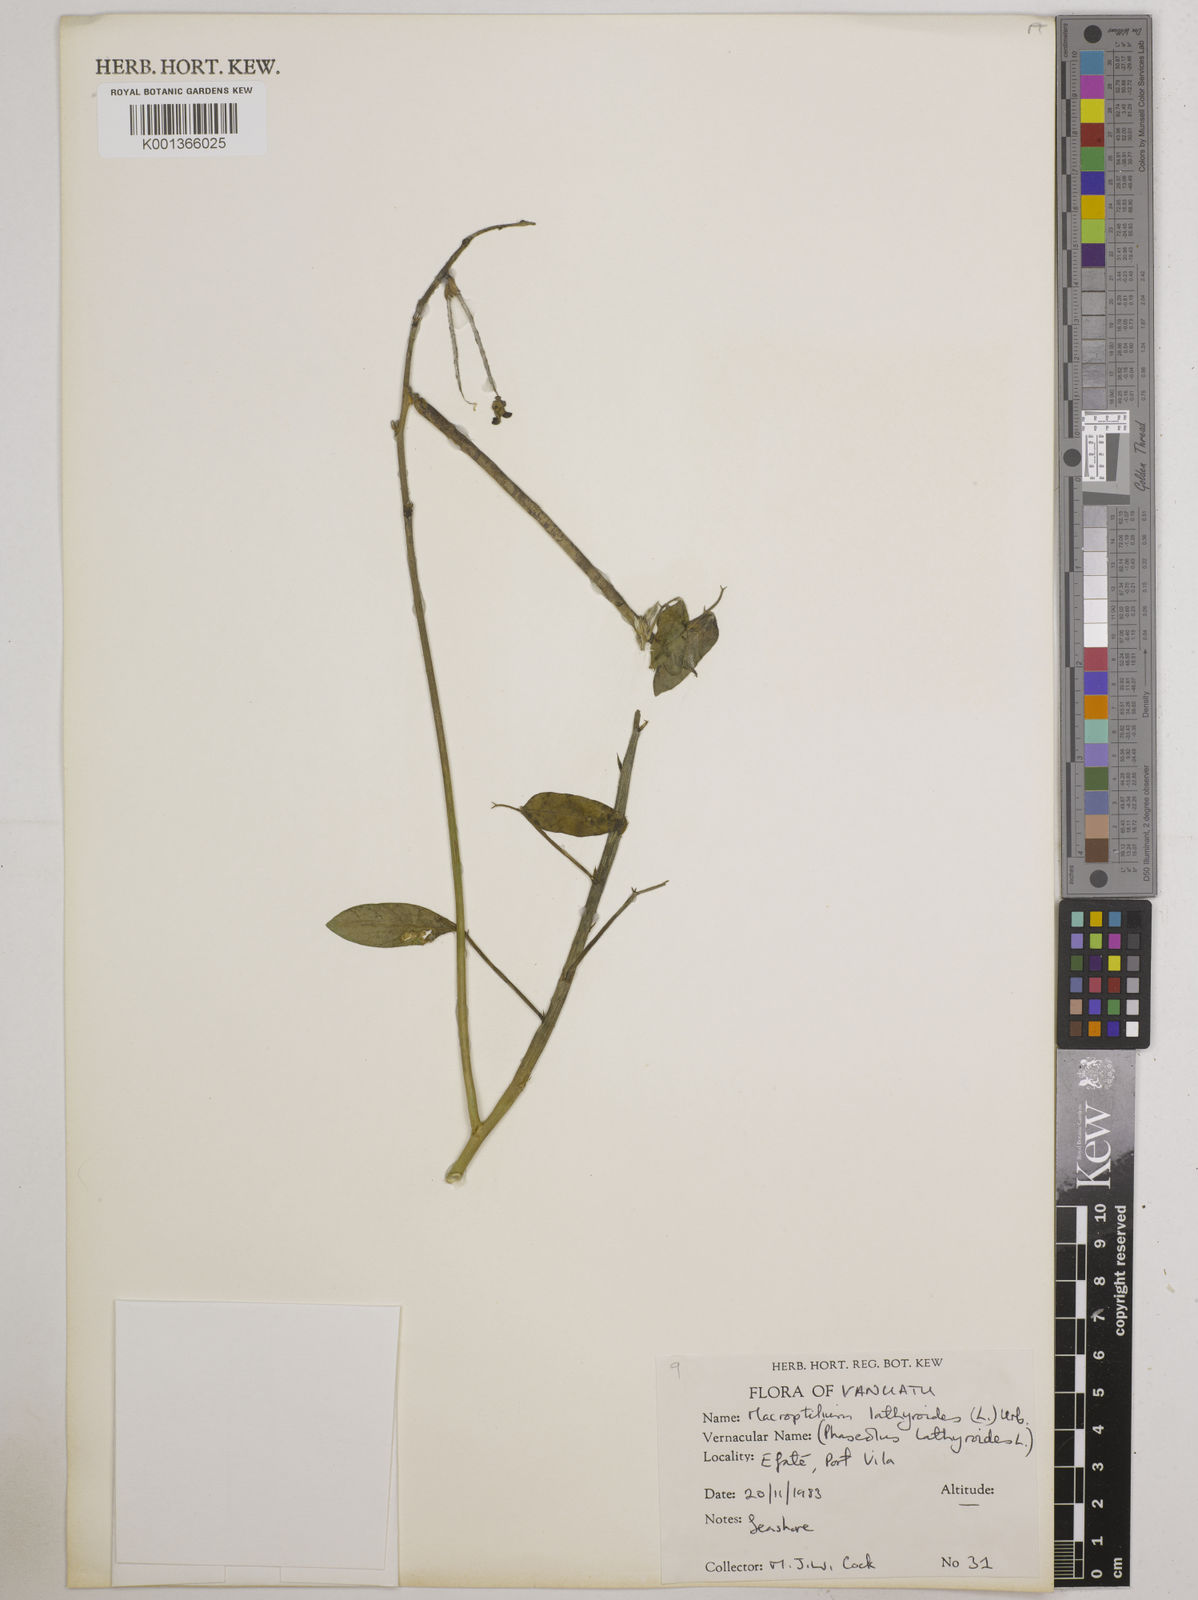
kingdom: Plantae
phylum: Tracheophyta
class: Magnoliopsida
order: Fabales
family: Fabaceae
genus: Macroptilium
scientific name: Macroptilium lathyroides
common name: Wild bushbean
